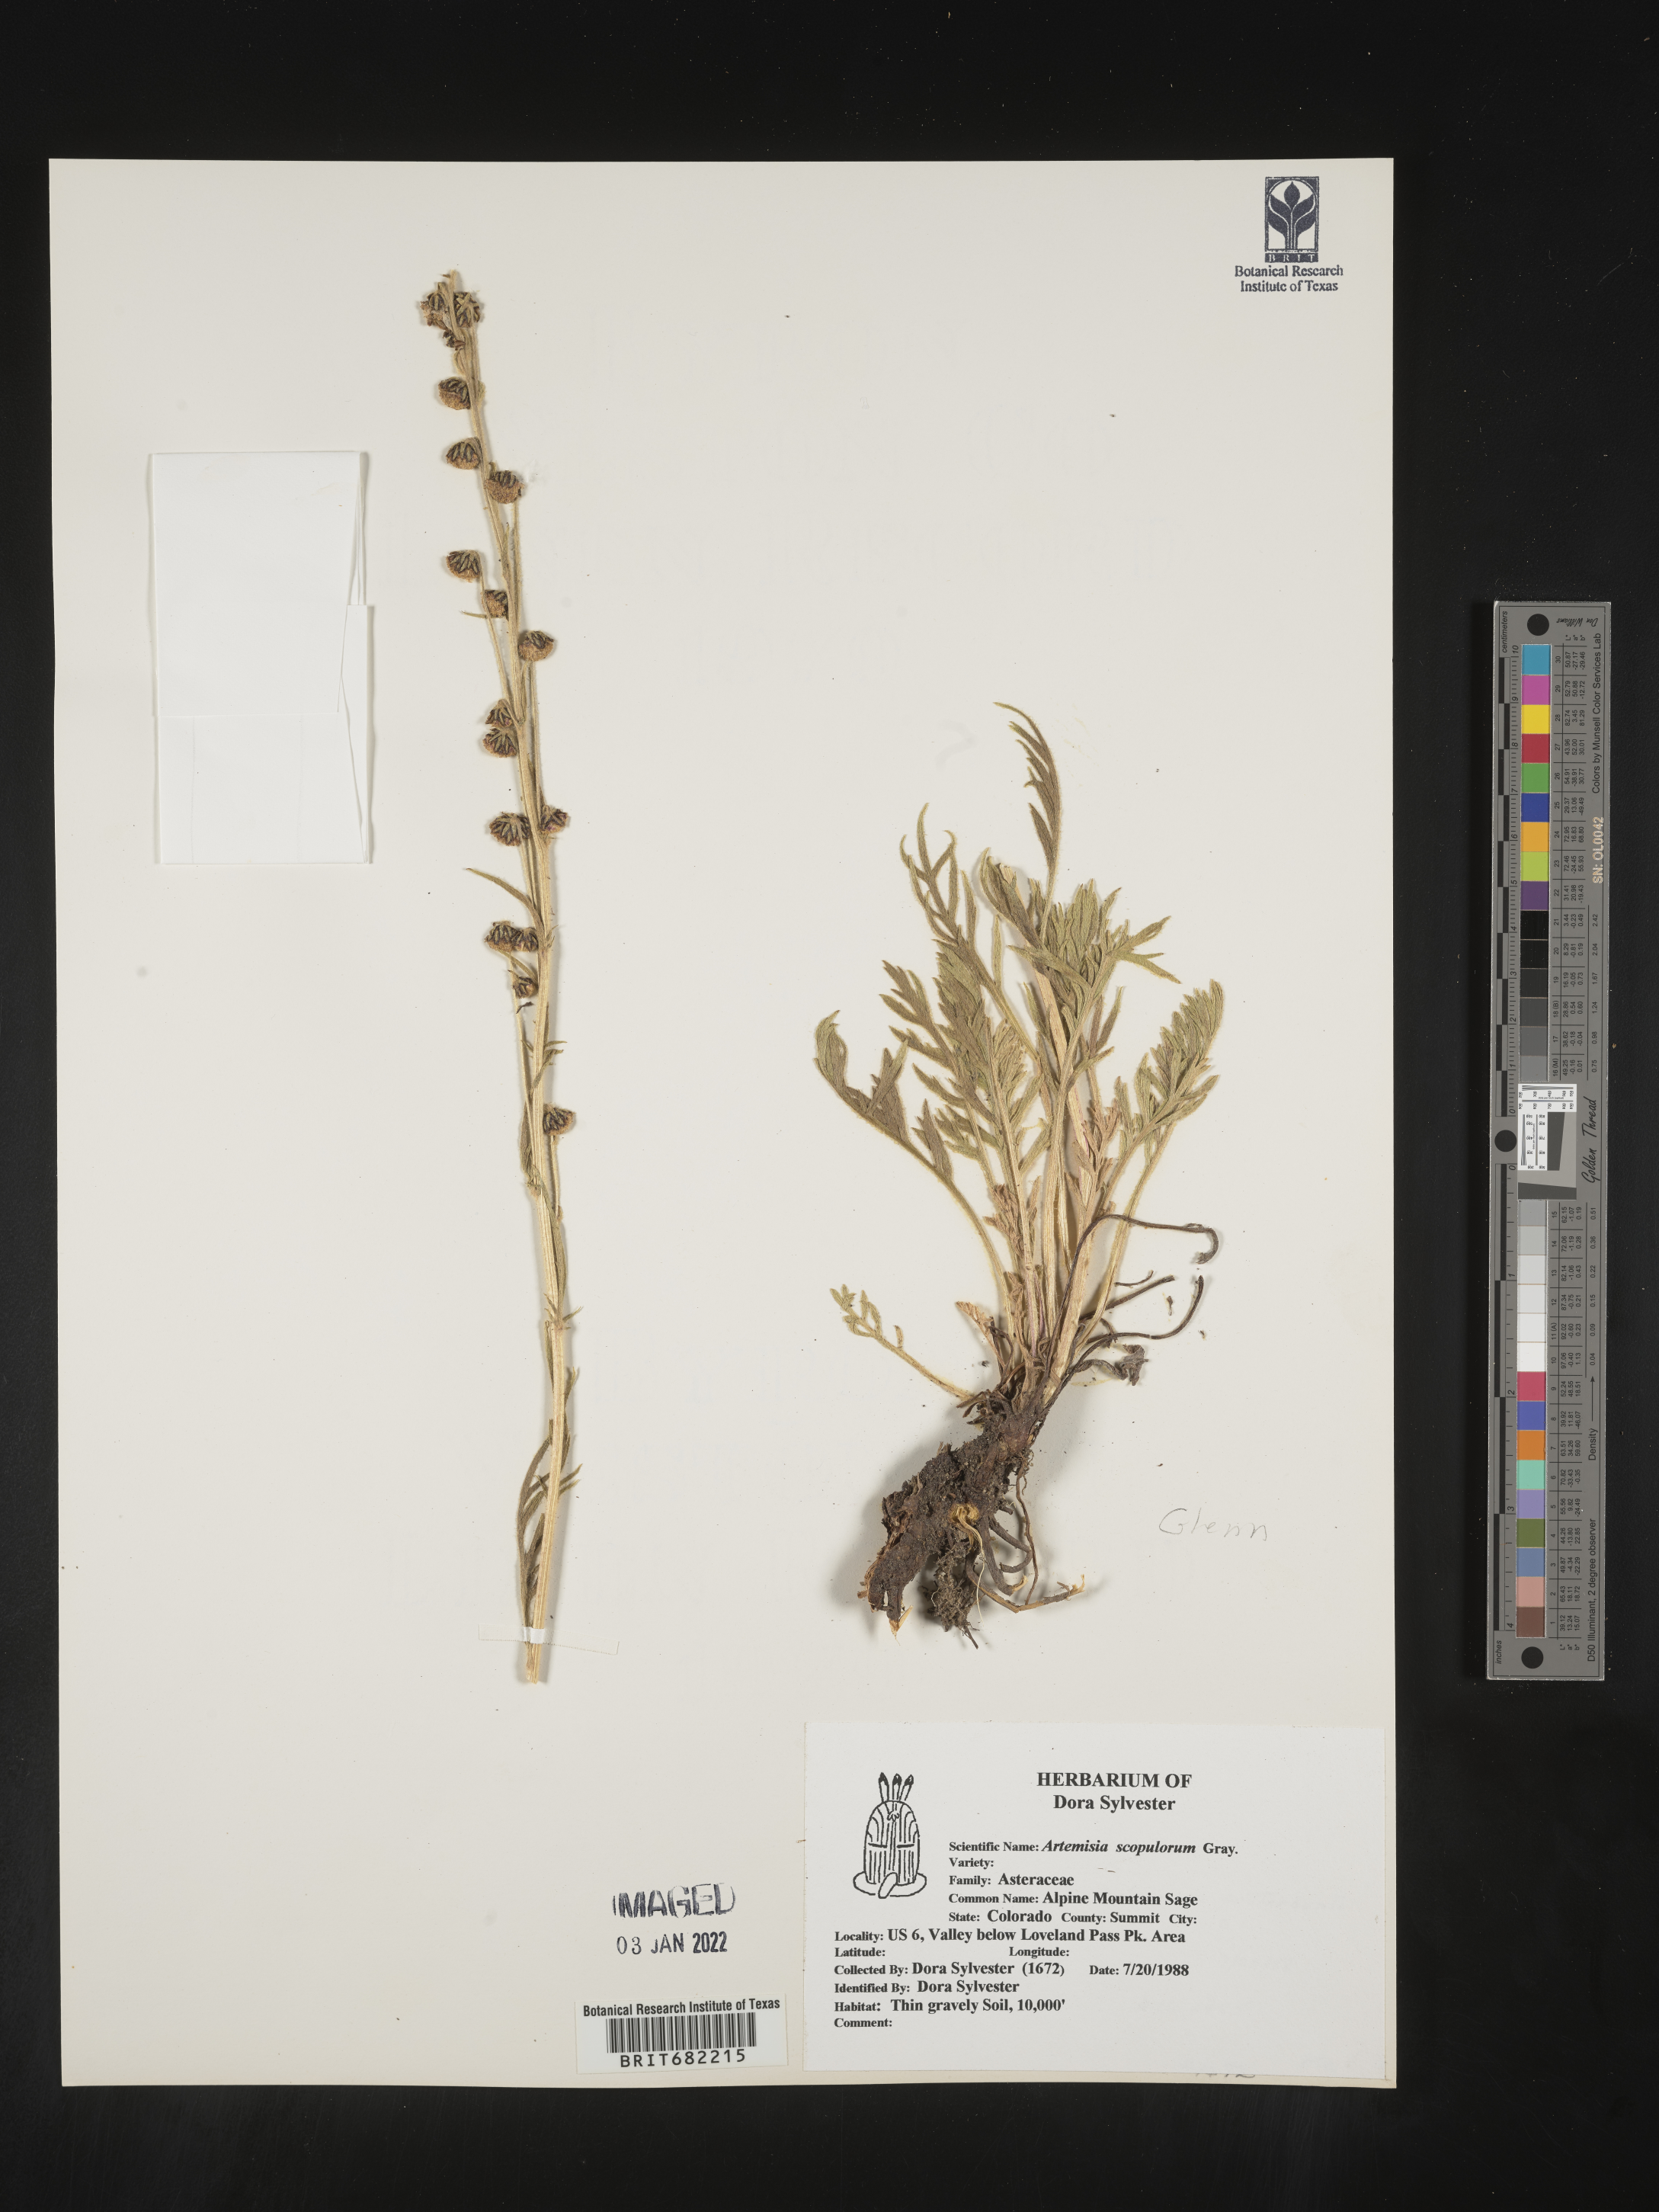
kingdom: Plantae
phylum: Tracheophyta
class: Magnoliopsida
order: Asterales
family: Asteraceae
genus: Artemisia
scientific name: Artemisia scopulorum
